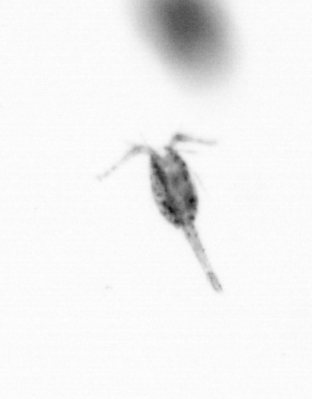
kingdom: Animalia
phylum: Arthropoda
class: Copepoda
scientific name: Copepoda
